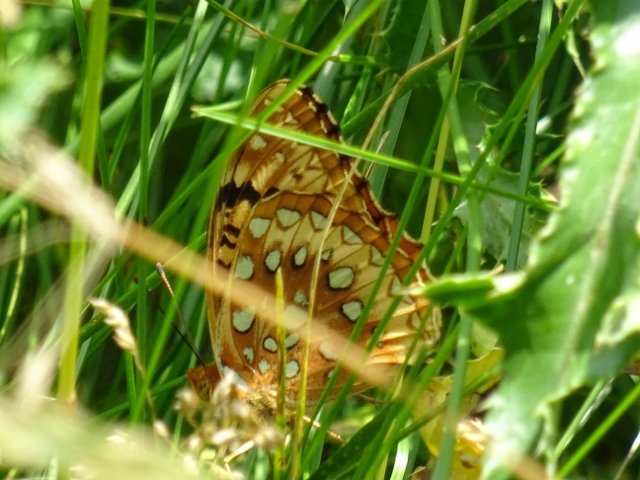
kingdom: Animalia
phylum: Arthropoda
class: Insecta
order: Lepidoptera
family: Nymphalidae
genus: Speyeria
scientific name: Speyeria cybele
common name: Great Spangled Fritillary
